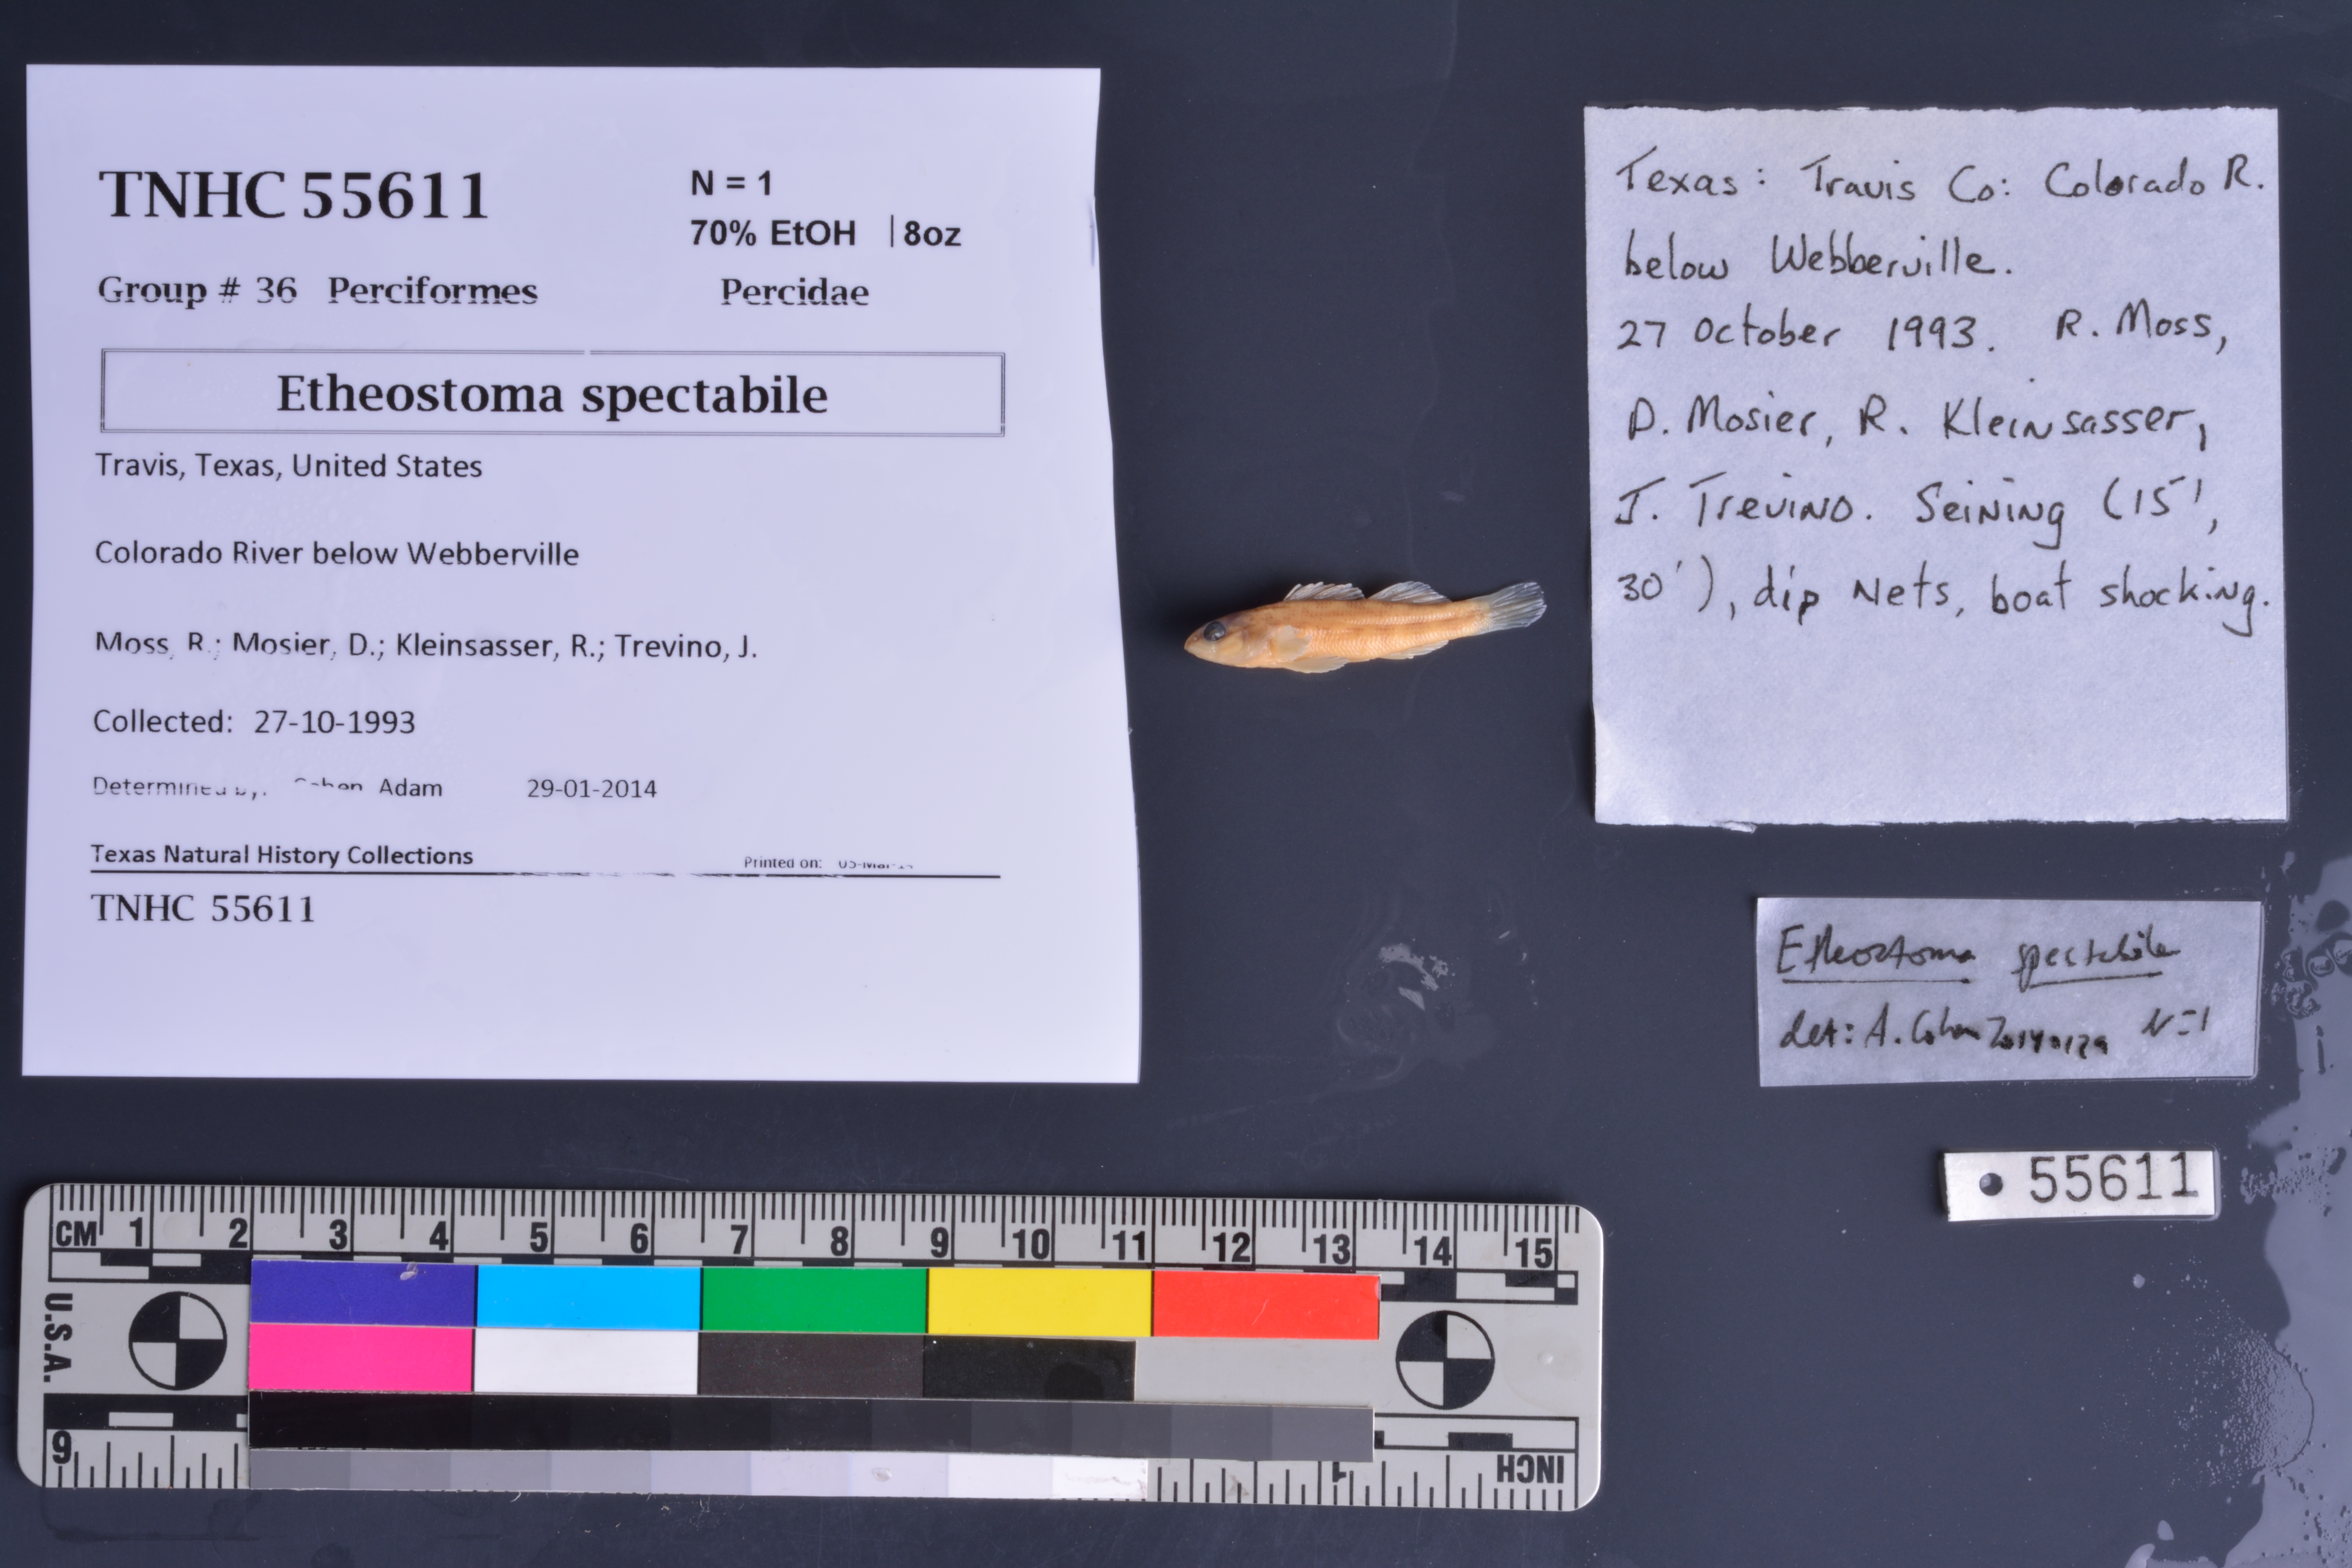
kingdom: Animalia
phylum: Chordata
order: Perciformes
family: Percidae
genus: Etheostoma
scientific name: Etheostoma spectabile
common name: Orangethroat darter
